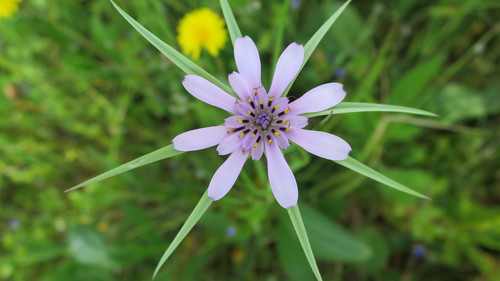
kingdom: Plantae
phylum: Tracheophyta
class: Magnoliopsida
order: Asterales
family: Asteraceae
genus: Geropogon
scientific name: Geropogon hybridus
